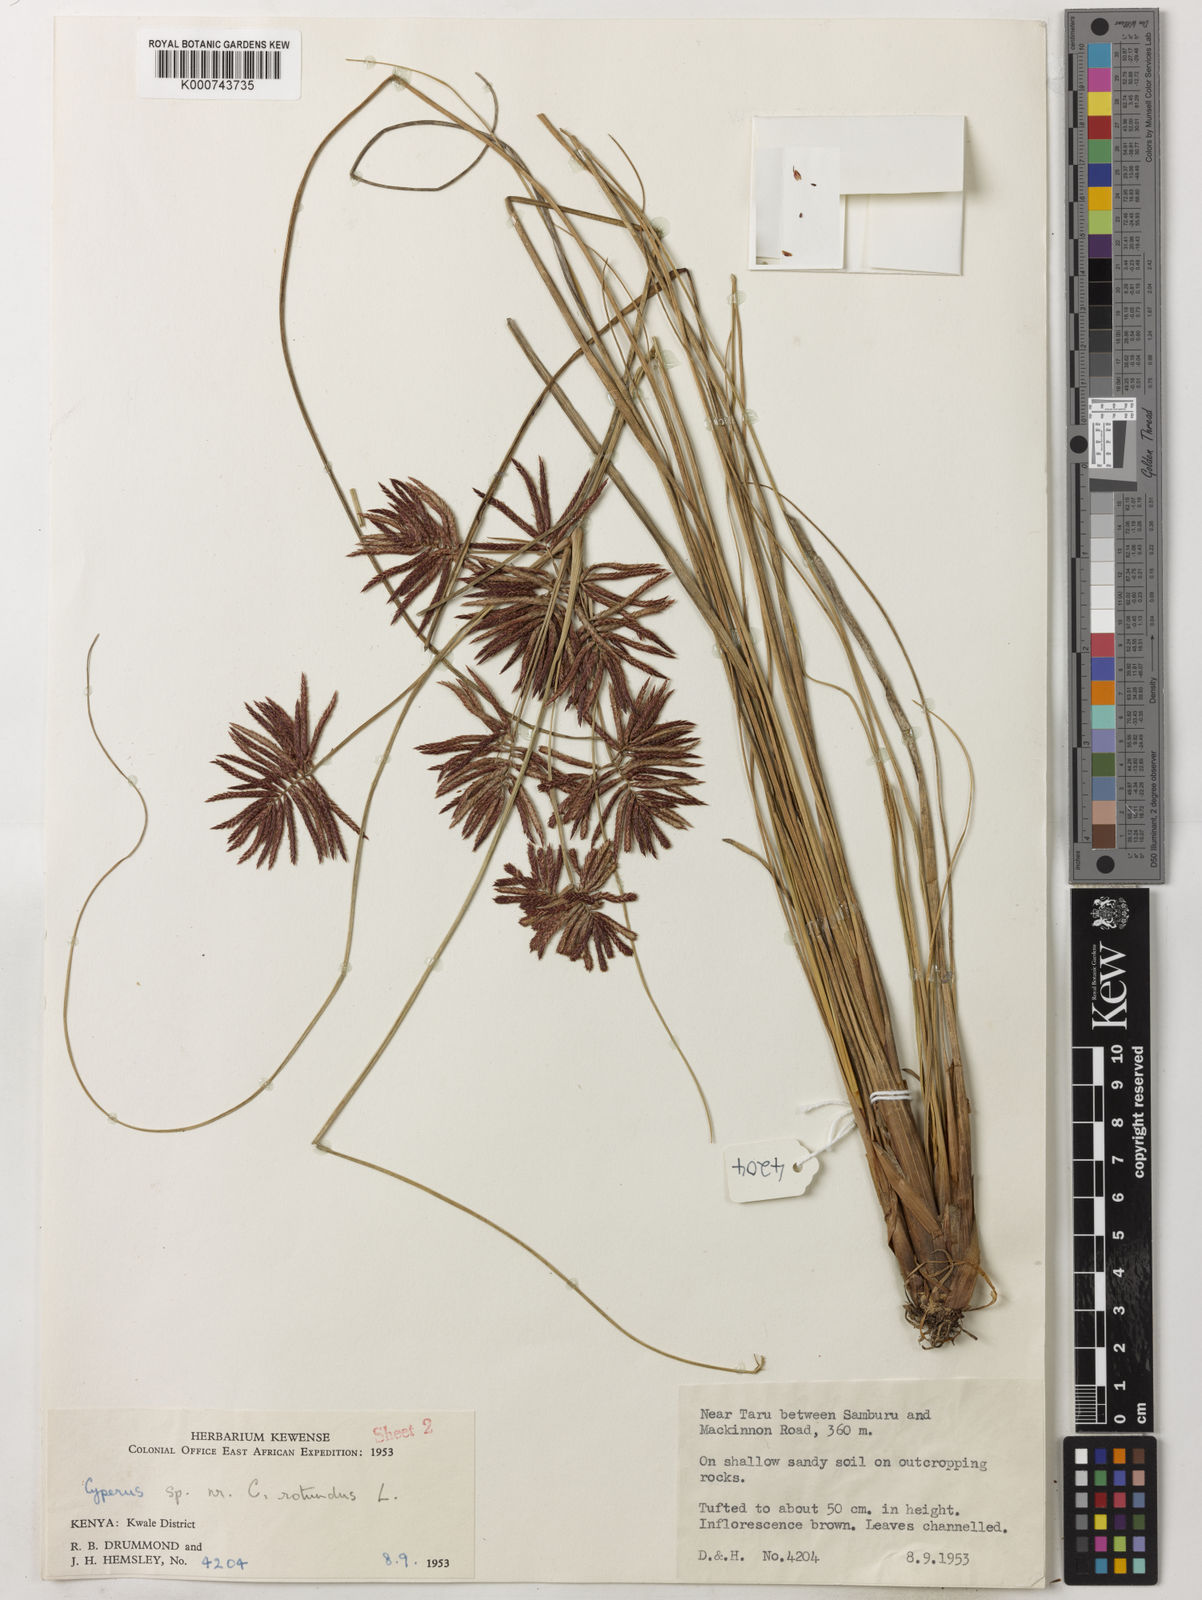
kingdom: Plantae
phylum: Tracheophyta
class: Liliopsida
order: Poales
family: Cyperaceae
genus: Cyperus
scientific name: Cyperus kwaleensis
